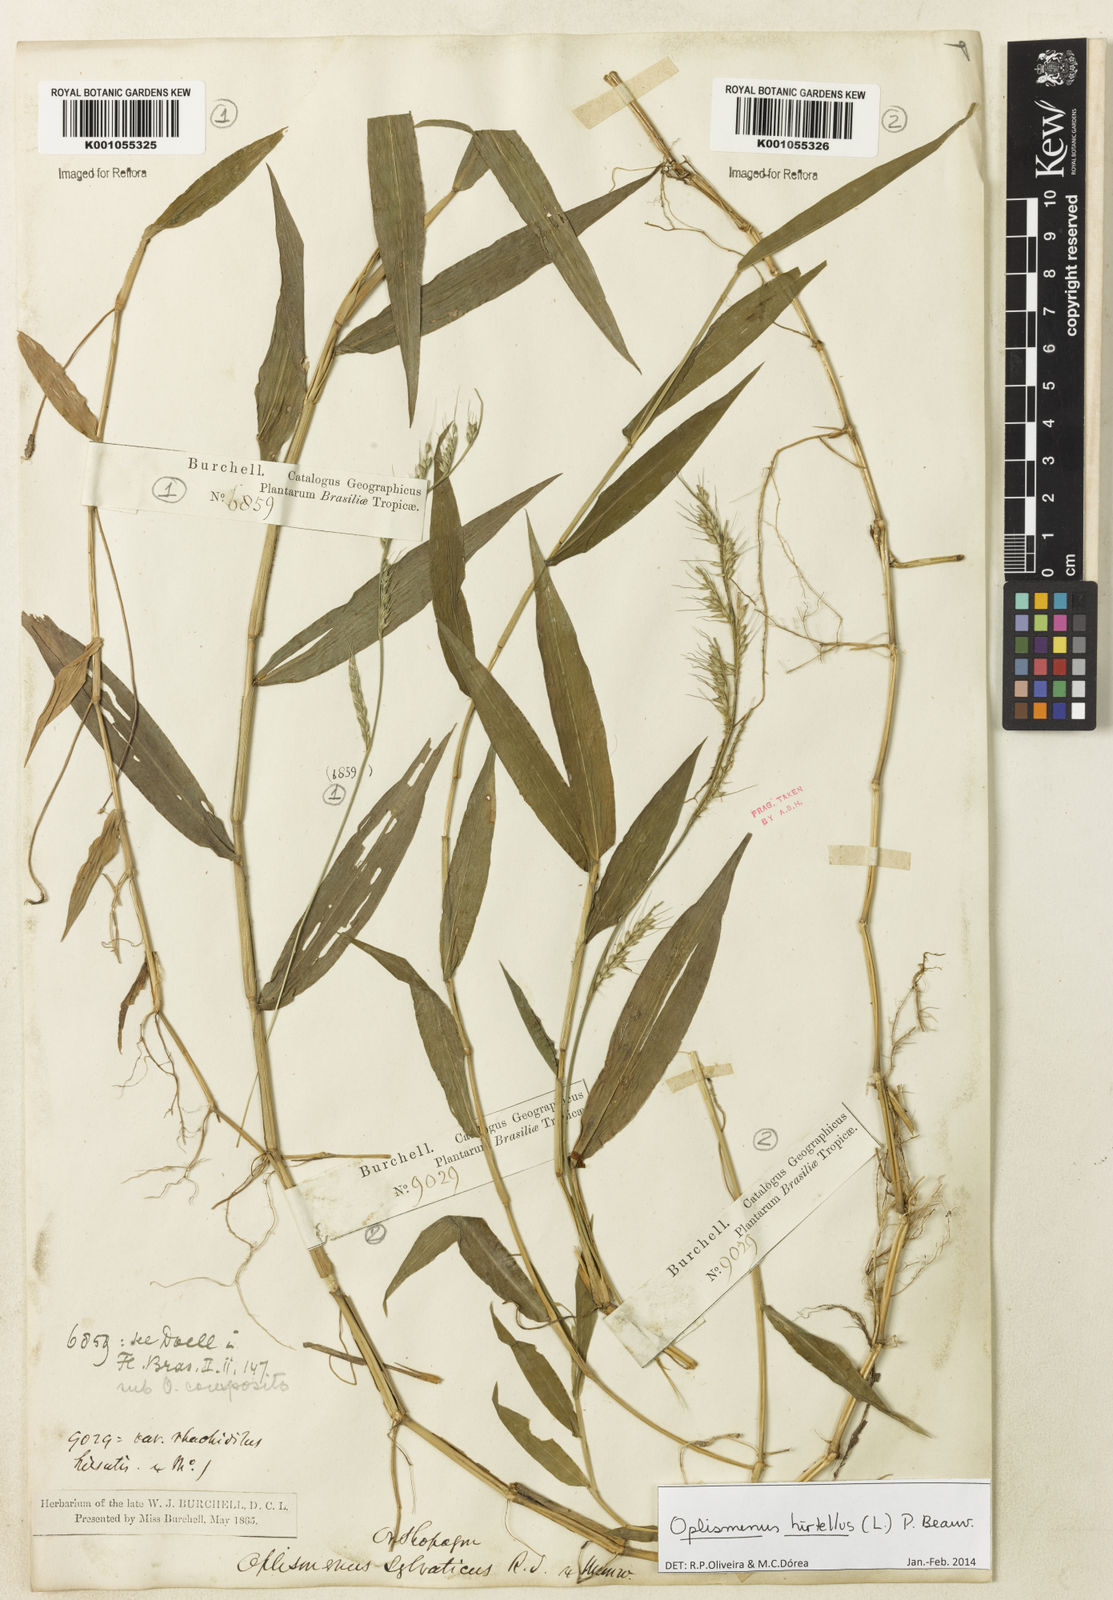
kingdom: Plantae
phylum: Tracheophyta
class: Liliopsida
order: Poales
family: Poaceae
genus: Oplismenus
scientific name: Oplismenus hirtellus
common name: Basketgrass
